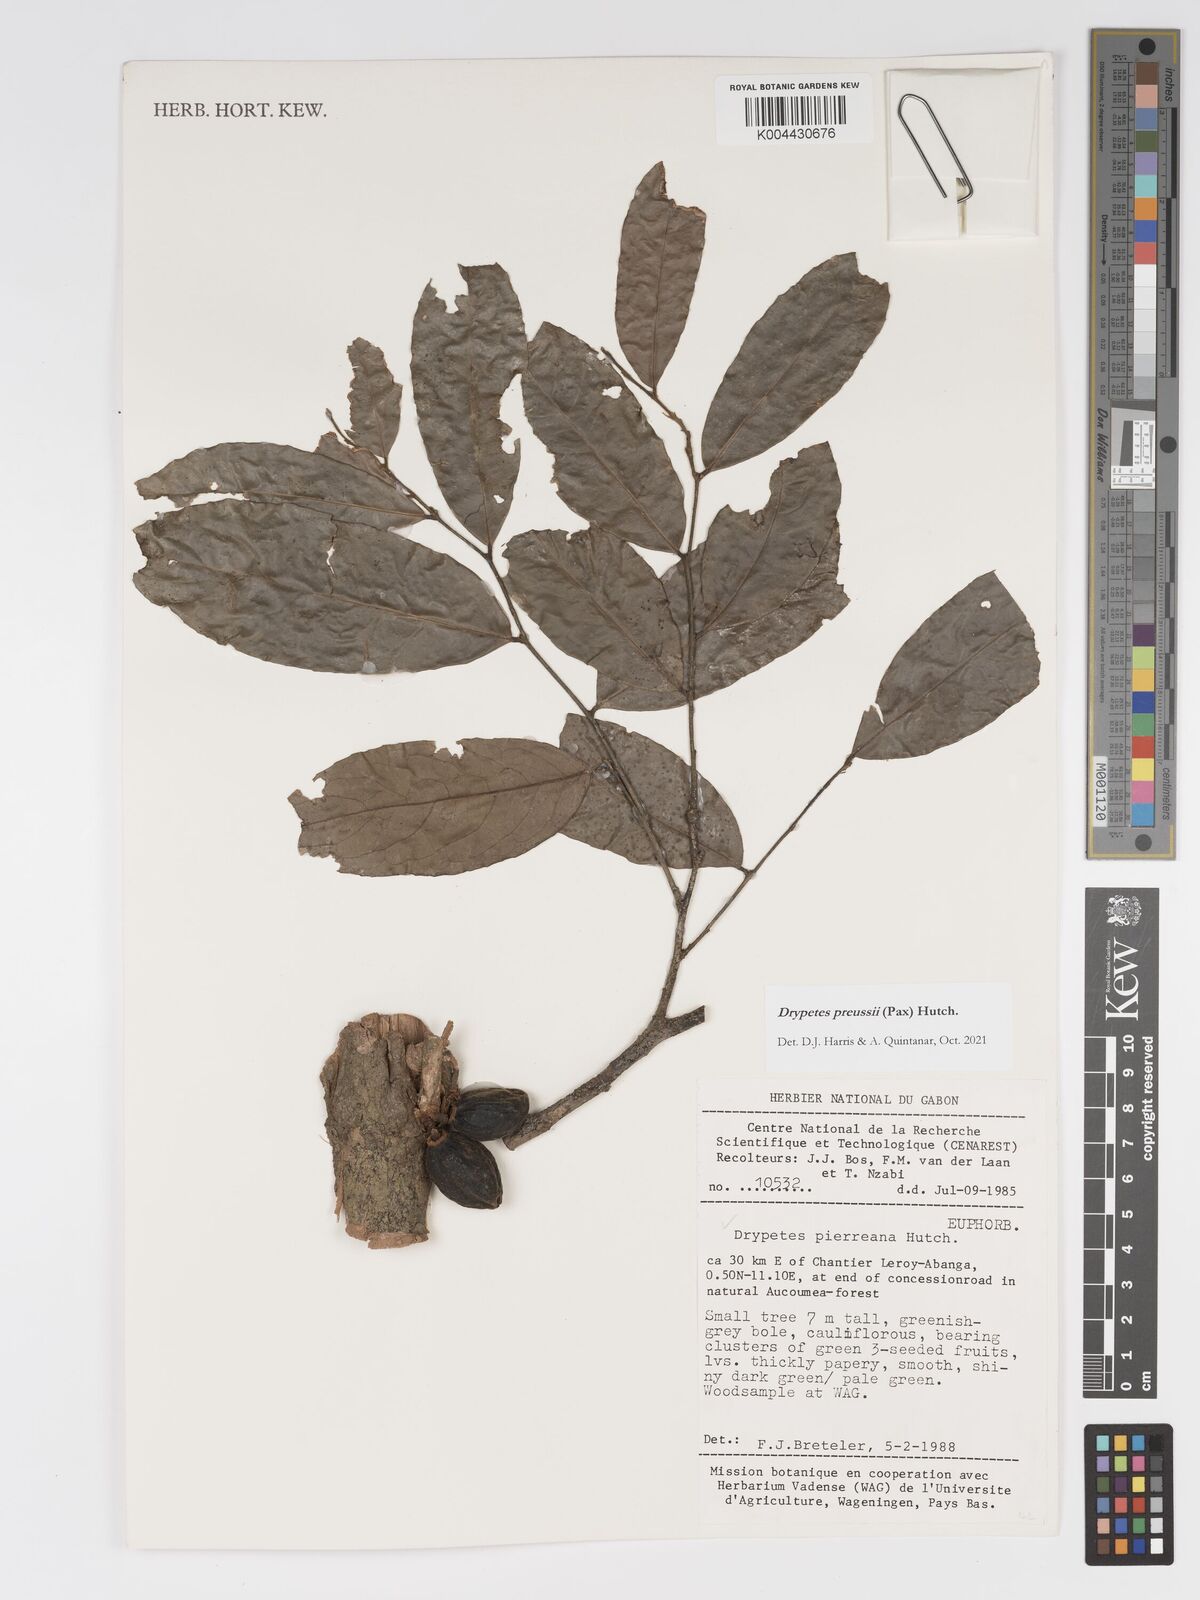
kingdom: Plantae
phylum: Tracheophyta
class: Magnoliopsida
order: Malpighiales
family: Putranjivaceae
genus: Drypetes
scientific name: Drypetes preussii
